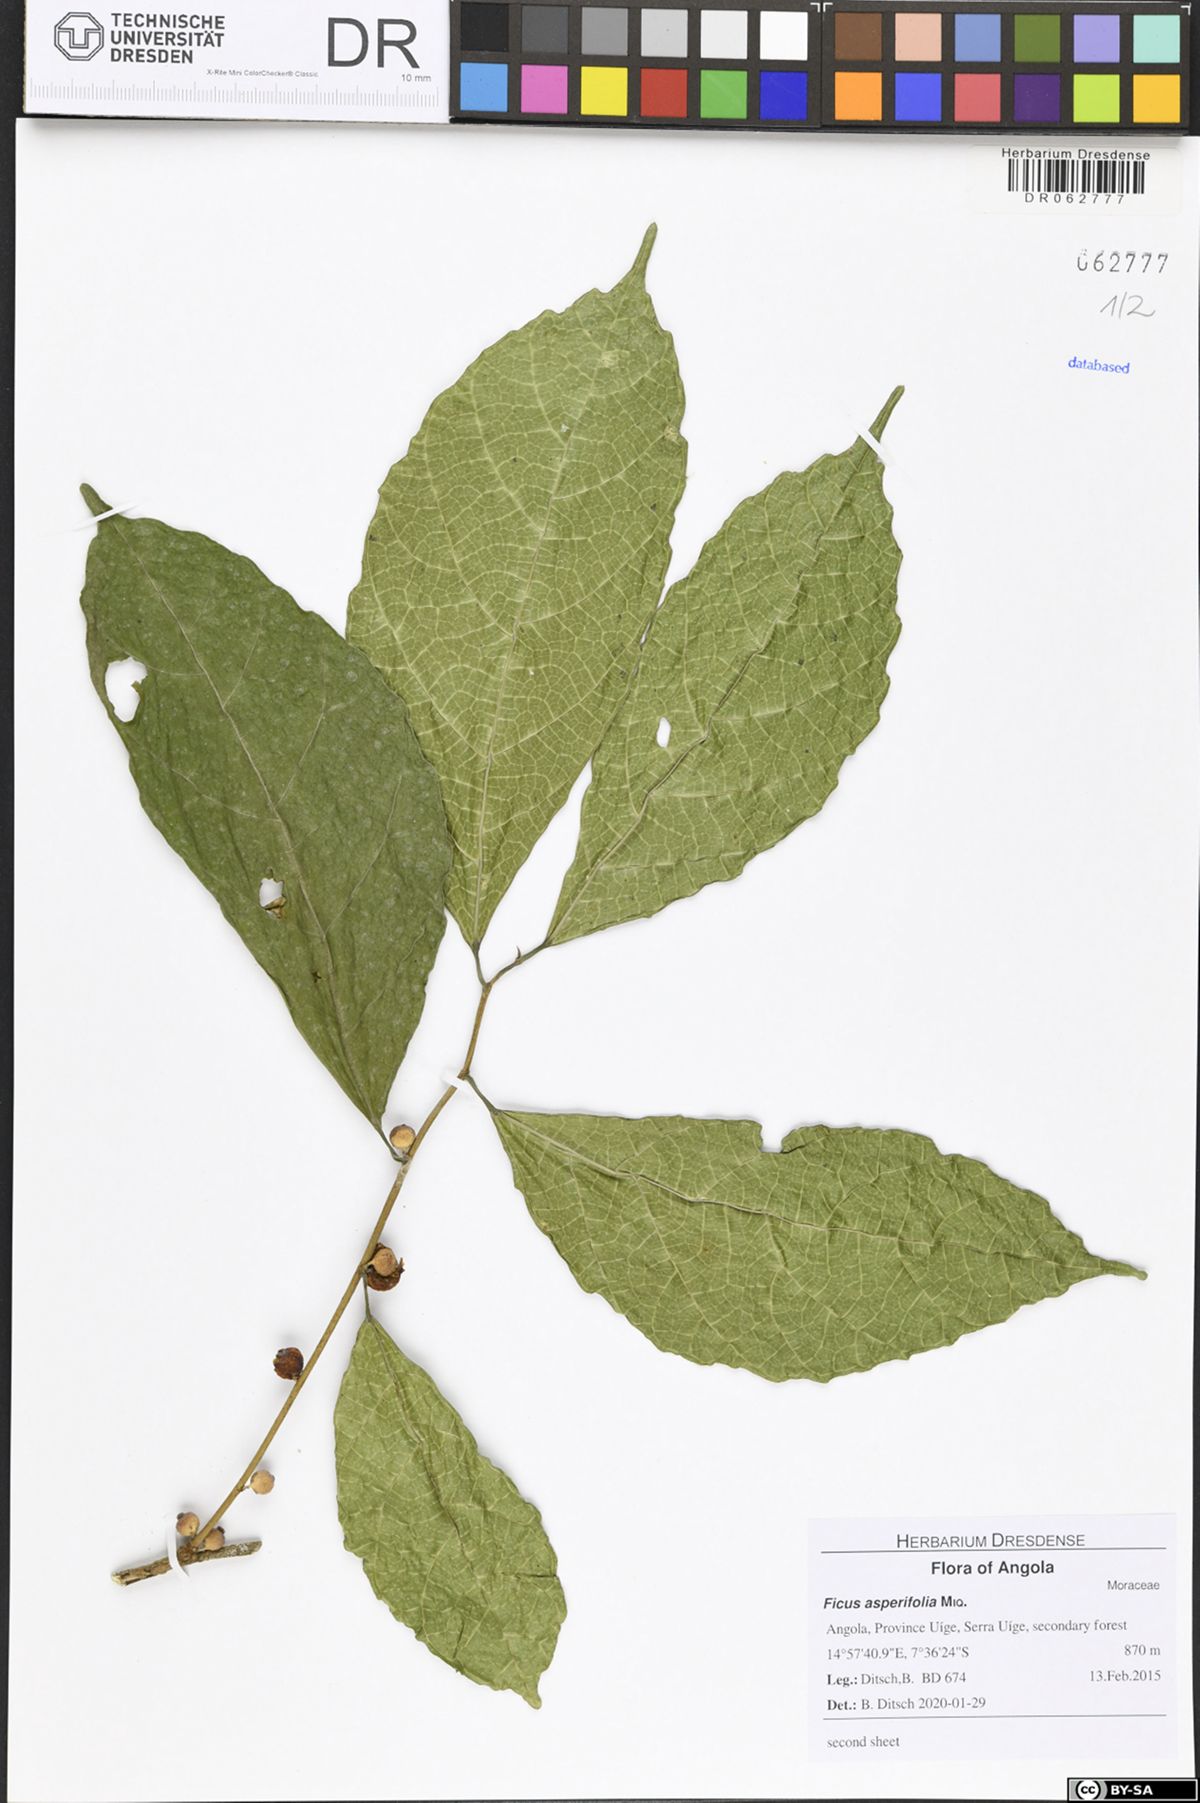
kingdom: Plantae
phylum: Tracheophyta
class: Magnoliopsida
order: Rosales
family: Moraceae
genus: Ficus
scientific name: Ficus asperifolia
